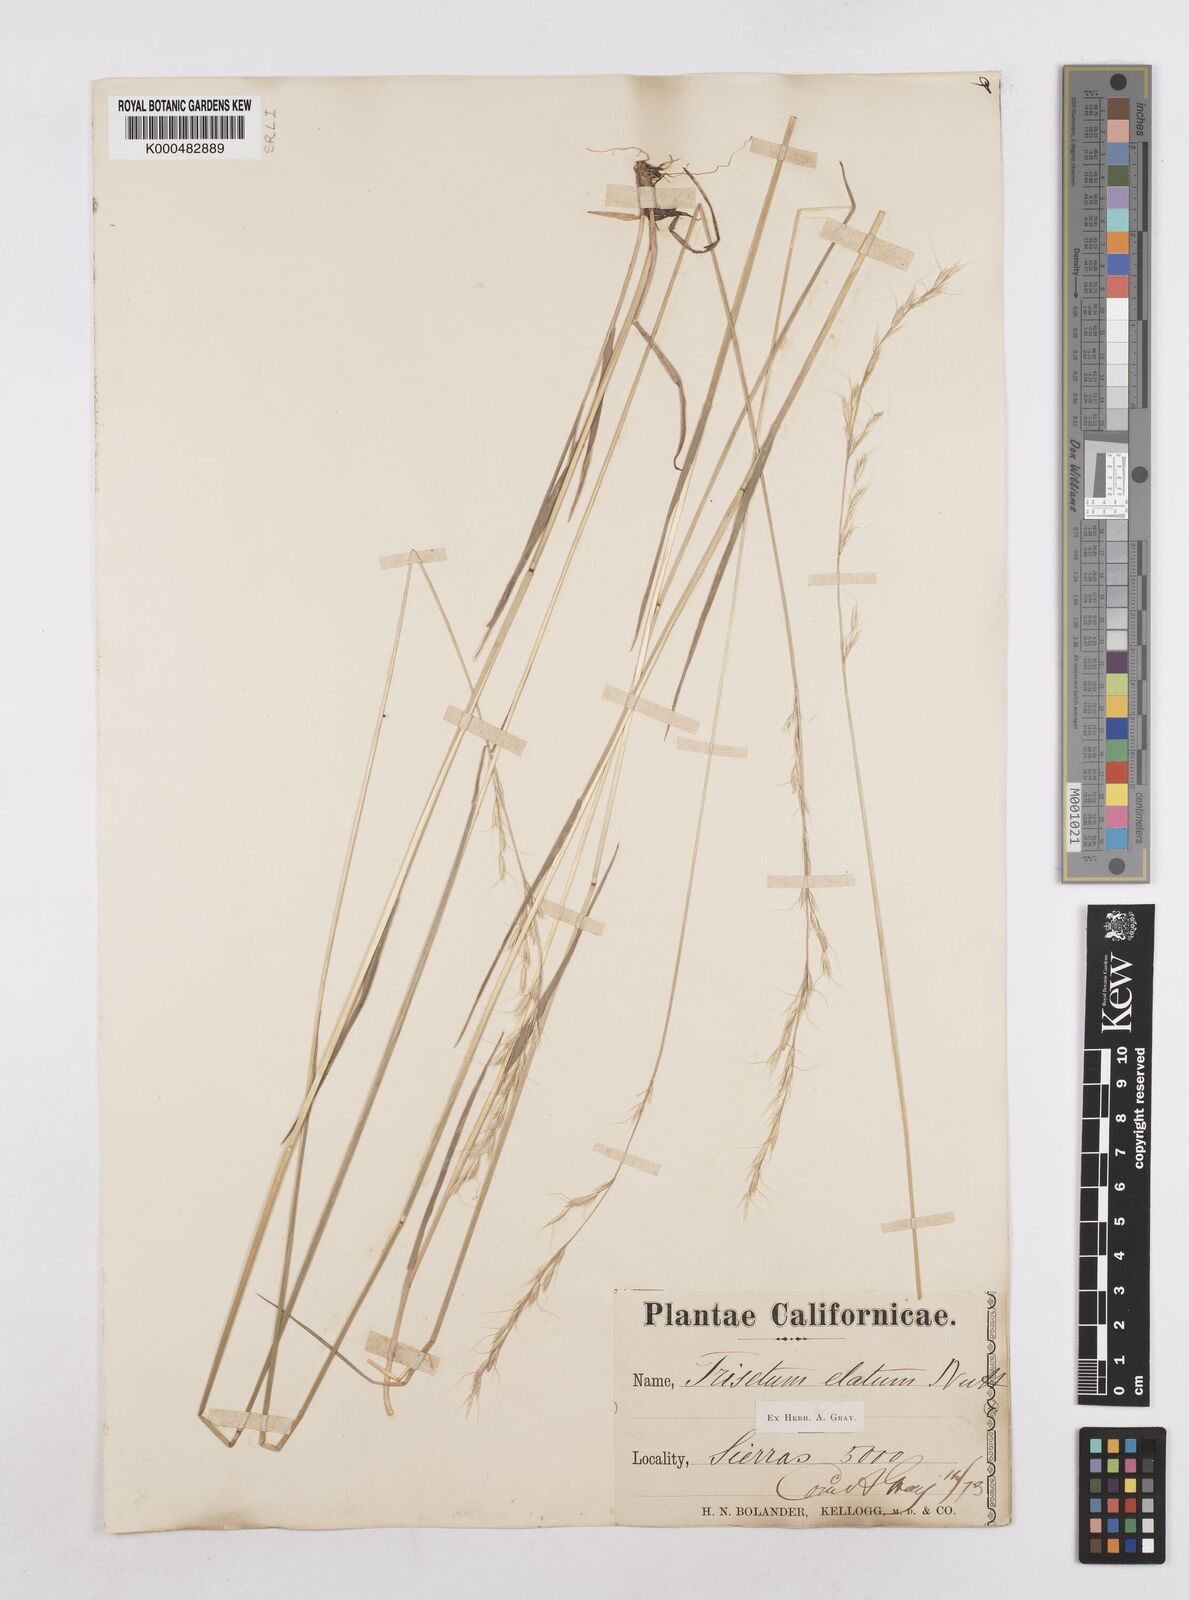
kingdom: Plantae
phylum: Tracheophyta
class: Liliopsida
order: Poales
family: Poaceae
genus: Graphephorum
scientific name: Graphephorum canescens
